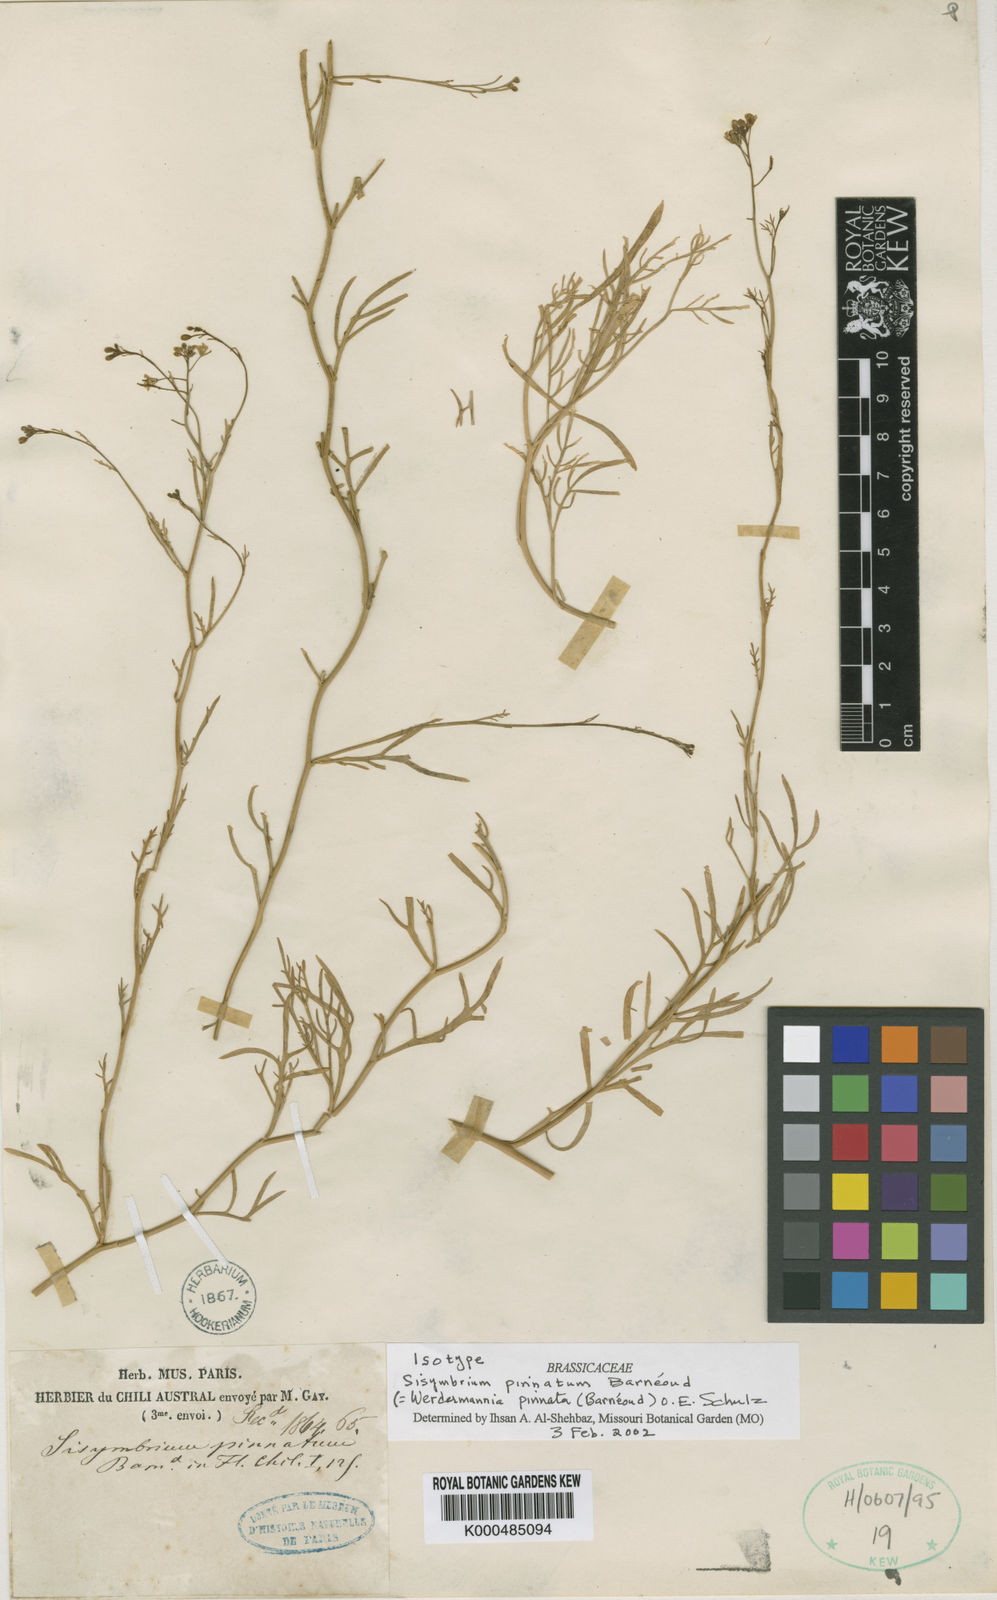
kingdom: Plantae
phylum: Tracheophyta
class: Magnoliopsida
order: Brassicales
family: Brassicaceae
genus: Sibara
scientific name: Sibara pinnata
